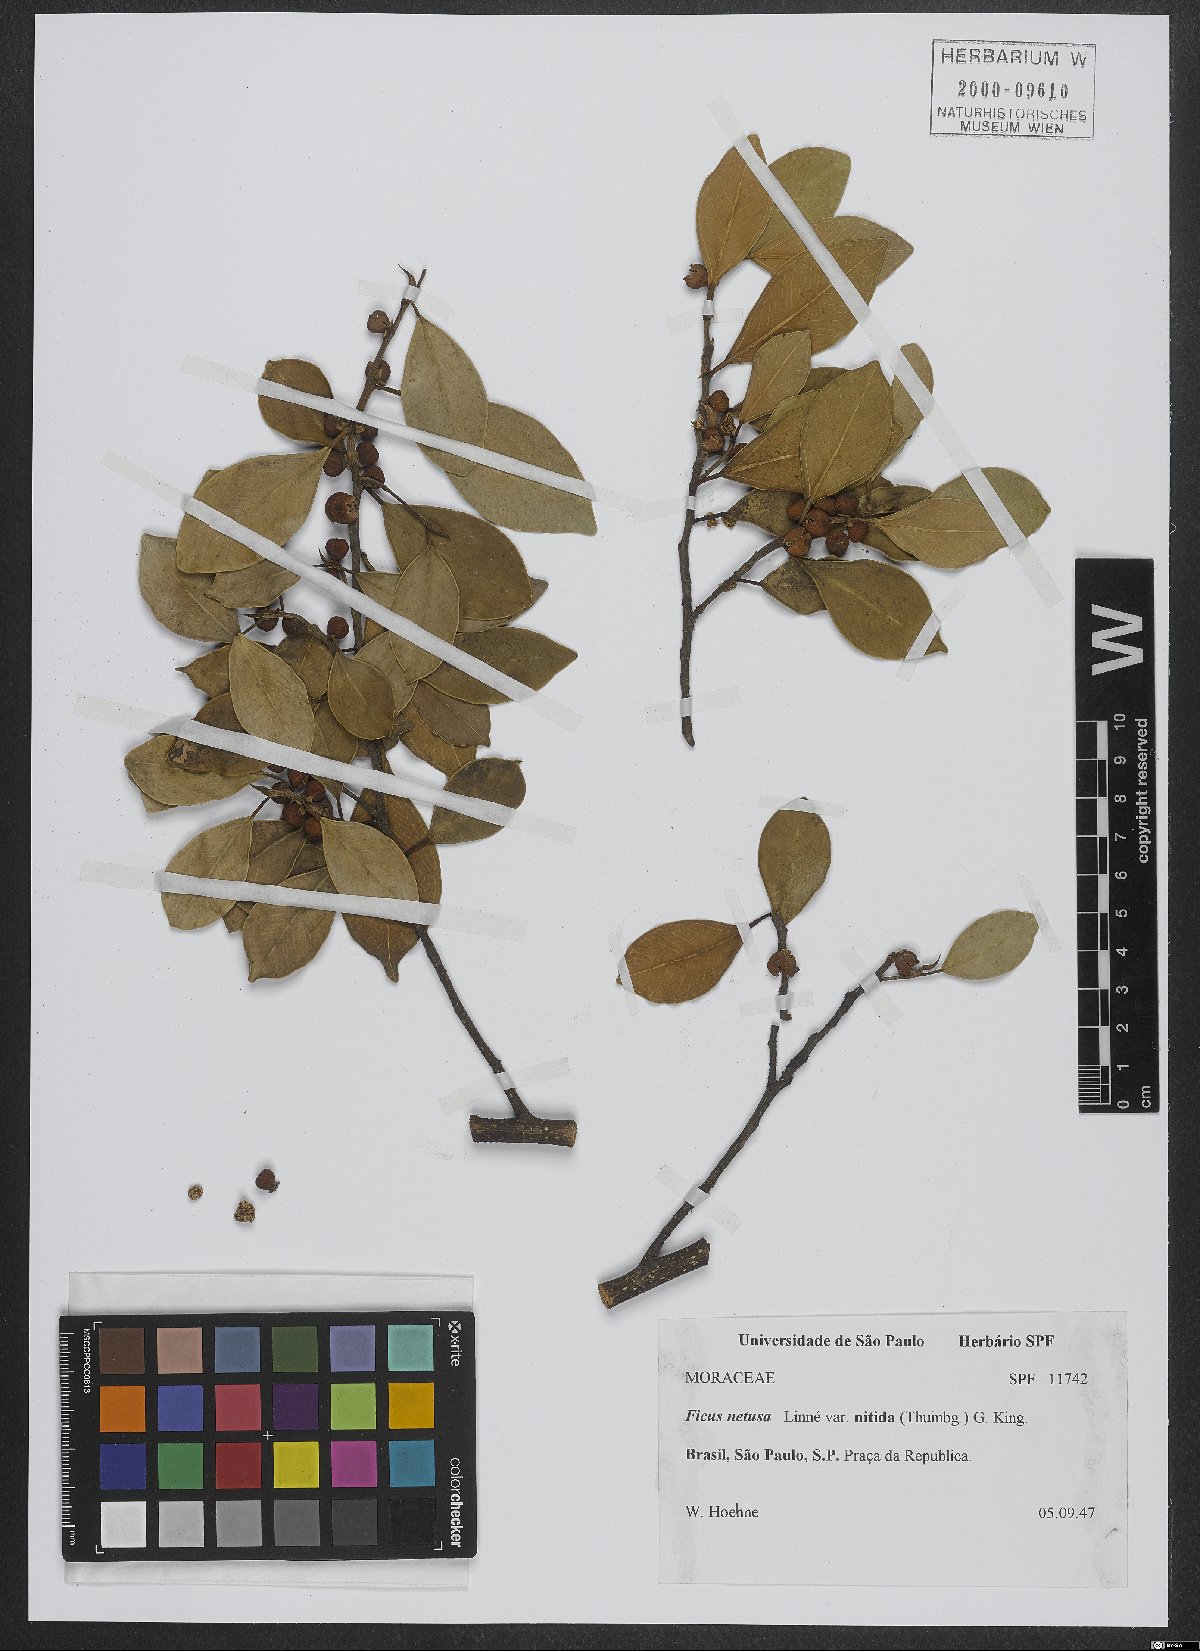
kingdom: Plantae
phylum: Tracheophyta
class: Magnoliopsida
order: Rosales
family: Moraceae
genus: Ficus
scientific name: Ficus retusa
